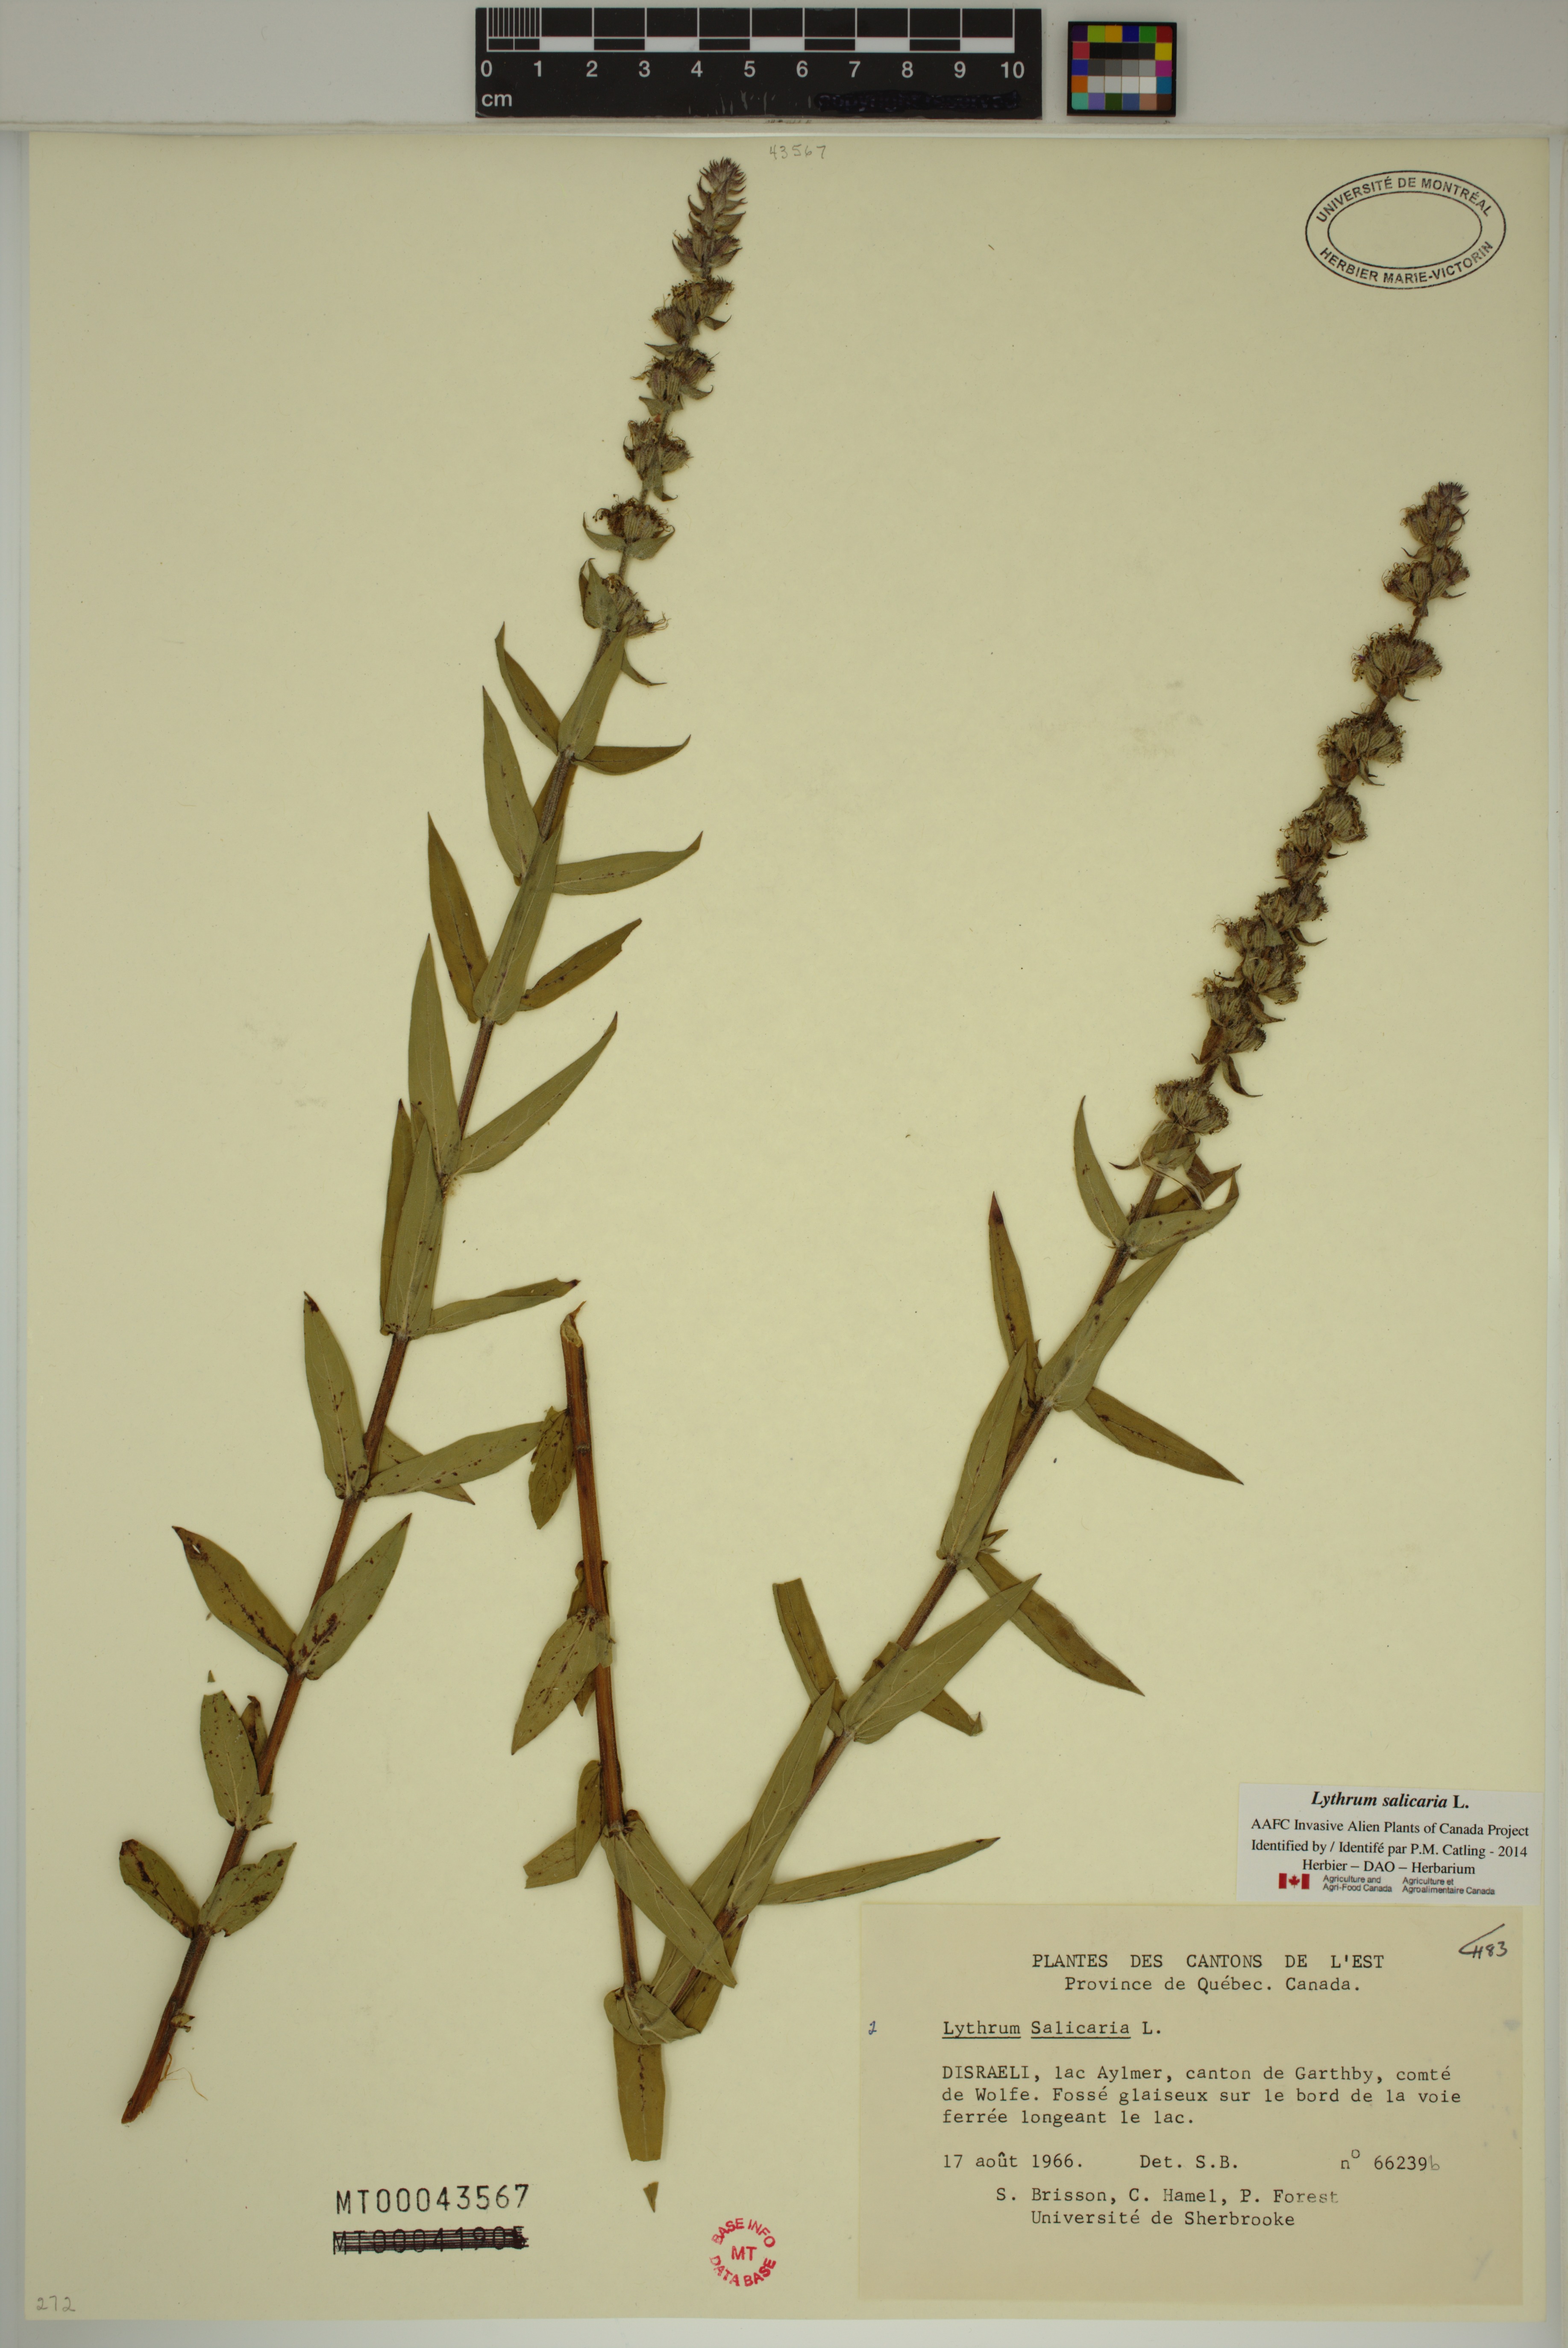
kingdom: Plantae
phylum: Tracheophyta
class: Magnoliopsida
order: Myrtales
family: Lythraceae
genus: Lythrum
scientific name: Lythrum salicaria
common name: Purple loosestrife
